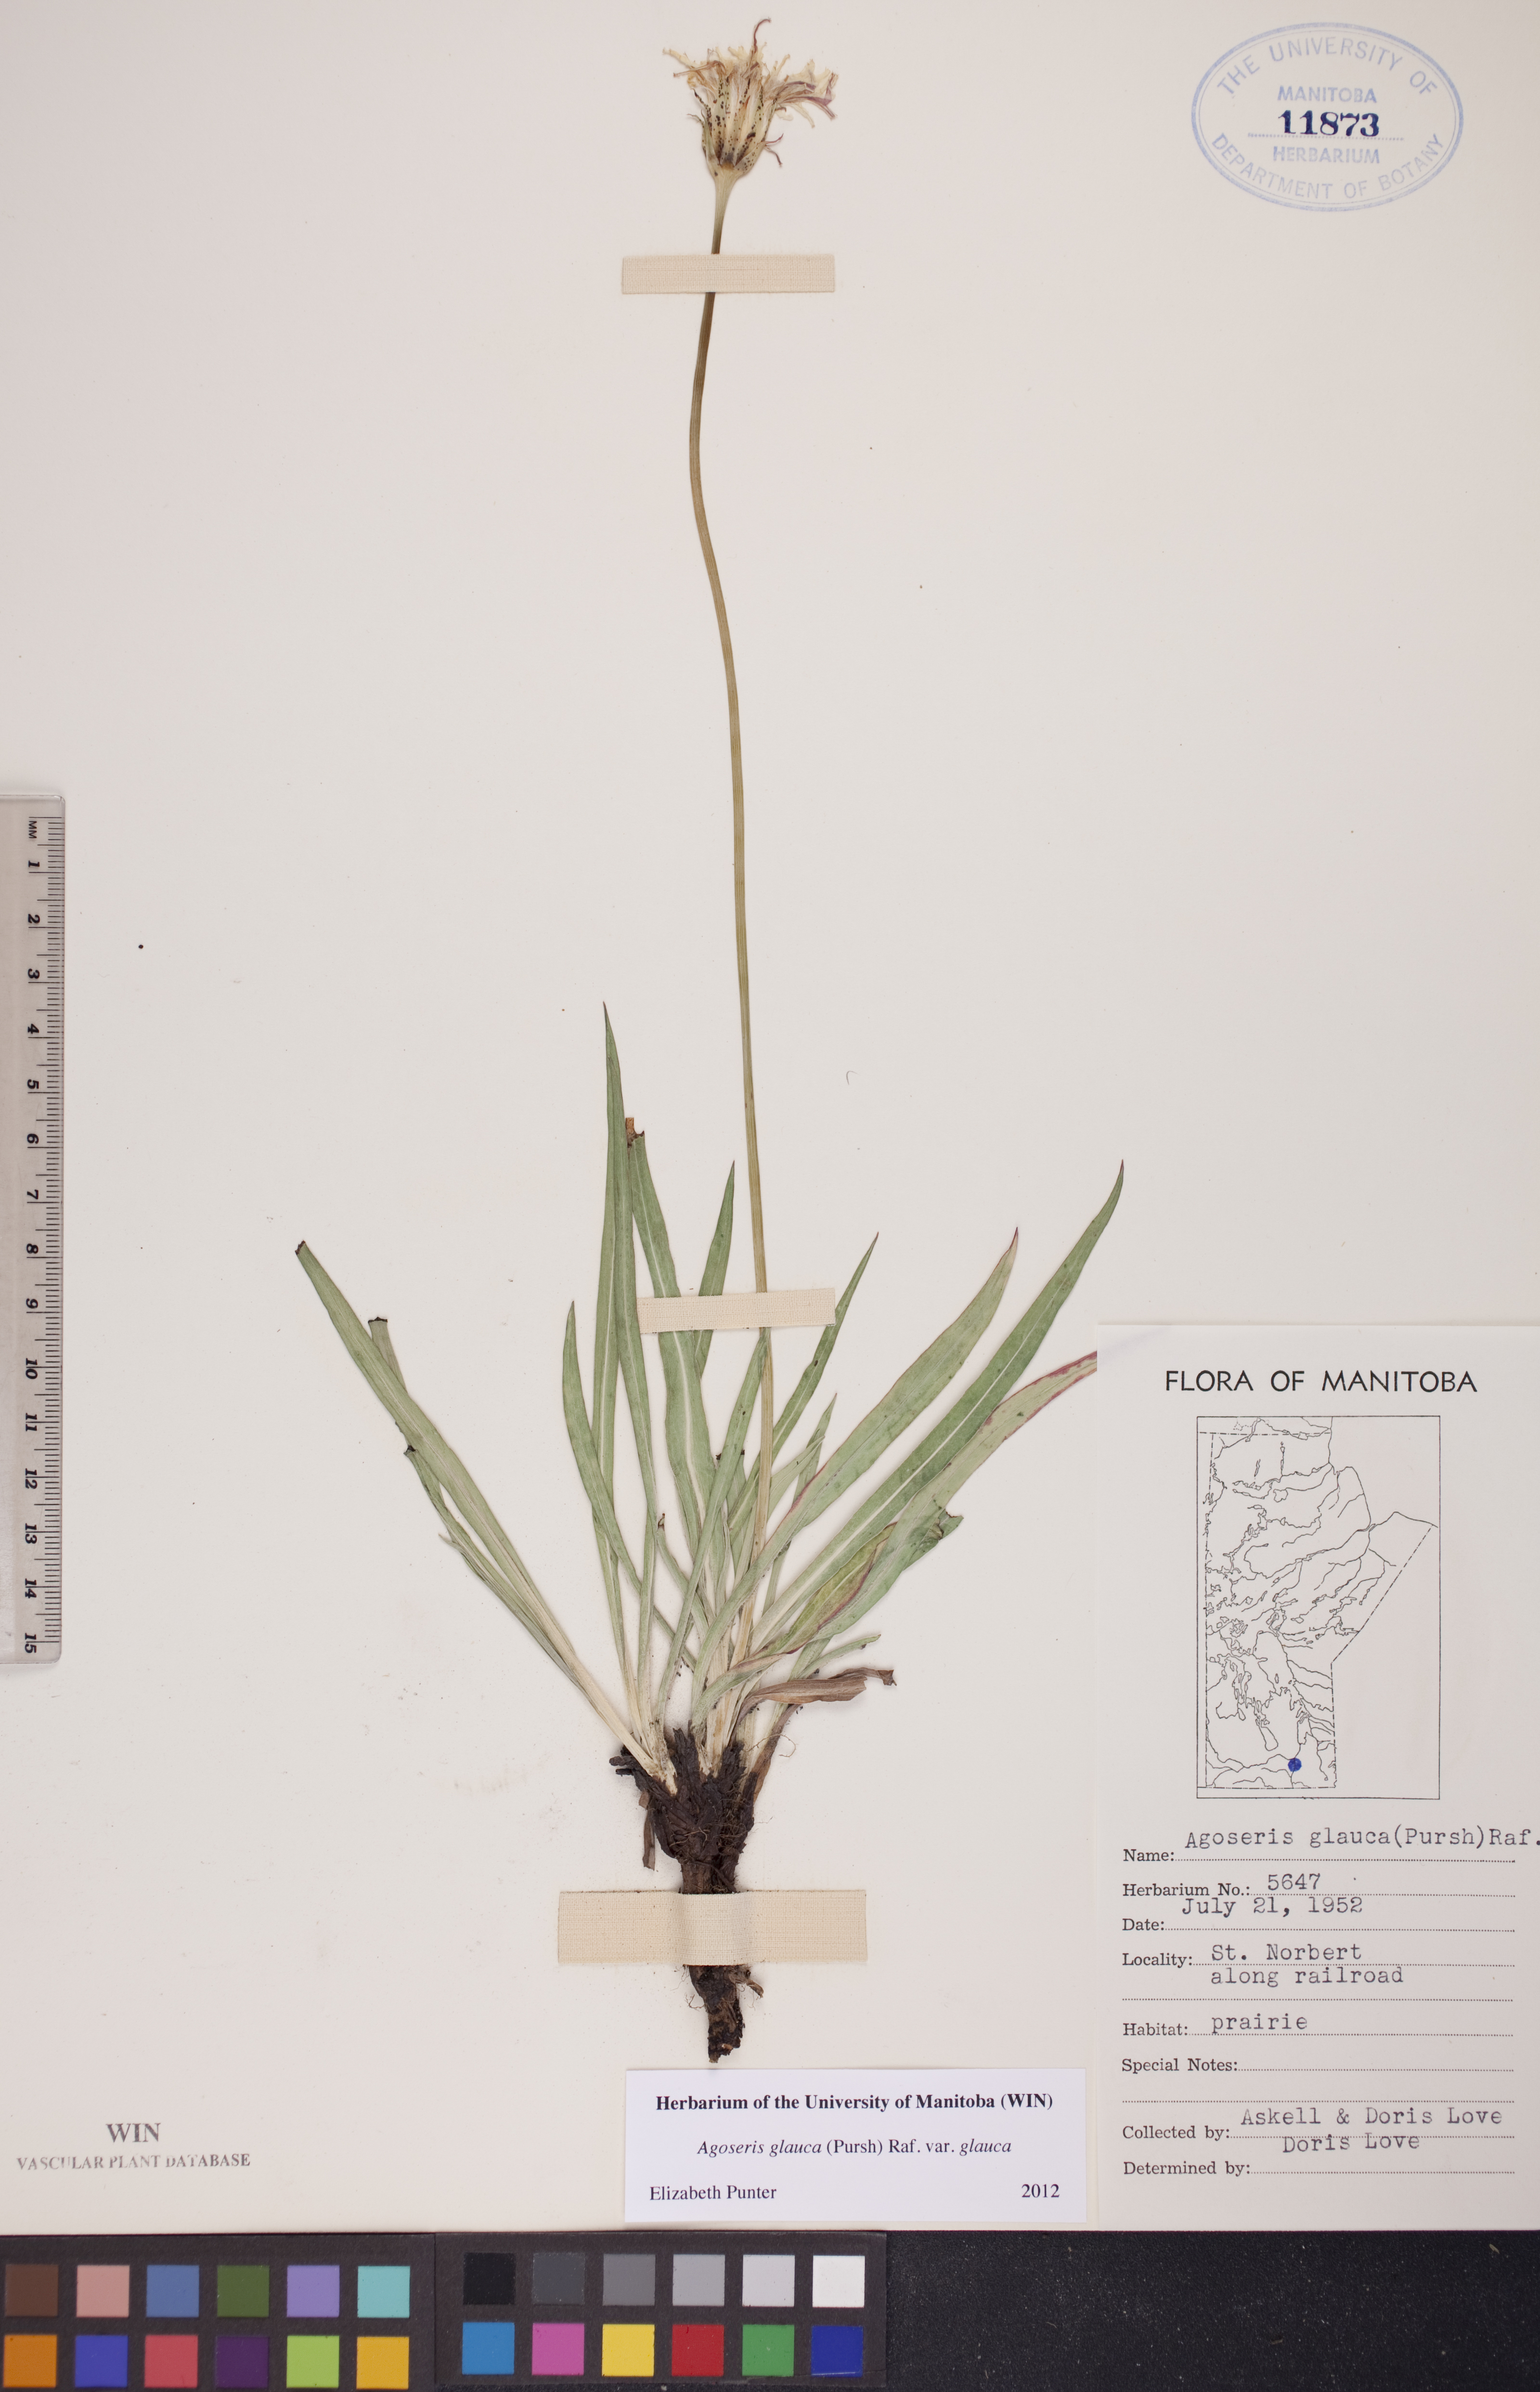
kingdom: Plantae
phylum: Tracheophyta
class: Magnoliopsida
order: Asterales
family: Asteraceae
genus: Agoseris
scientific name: Agoseris glauca
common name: Prairie agoseris
